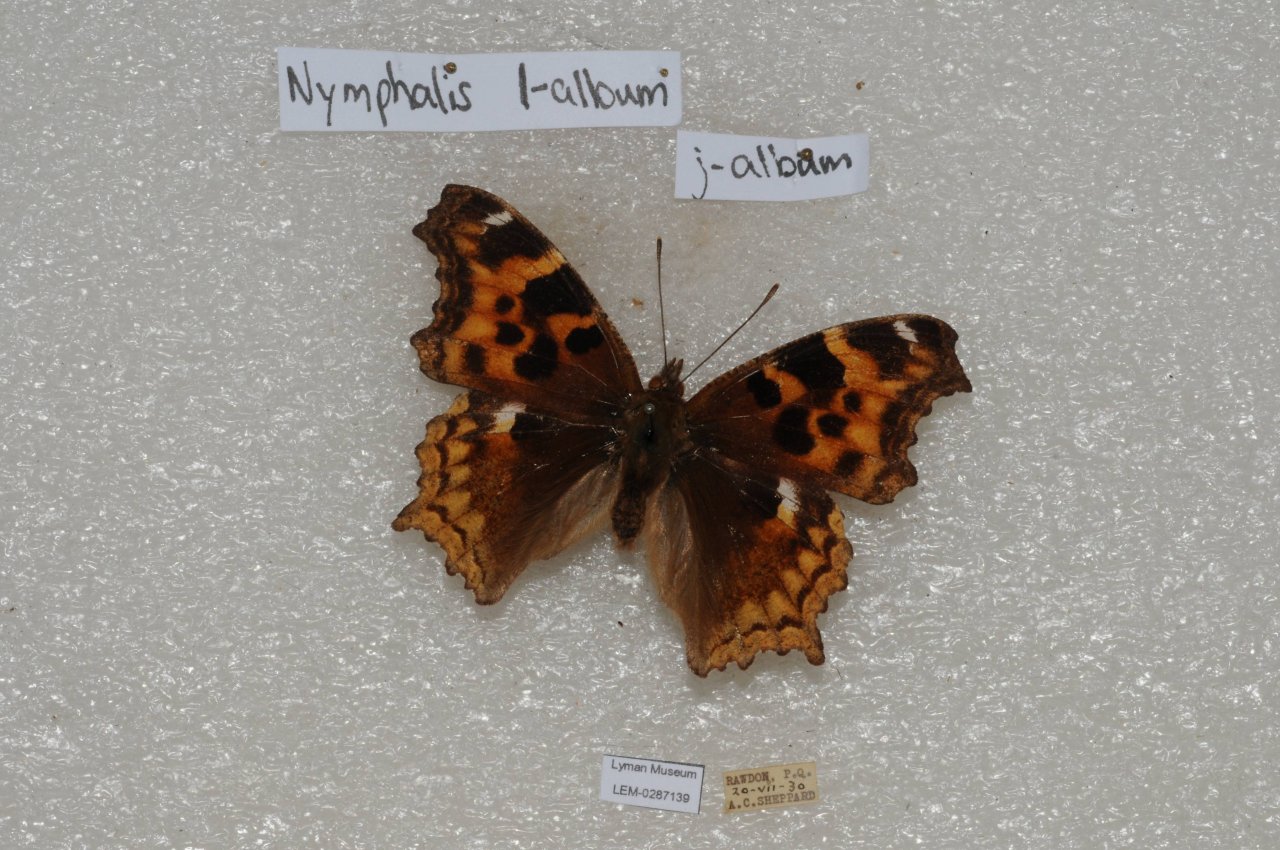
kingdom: Animalia
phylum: Arthropoda
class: Insecta
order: Lepidoptera
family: Nymphalidae
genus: Polygonia
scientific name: Polygonia vaualbum
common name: Compton Tortoiseshell
